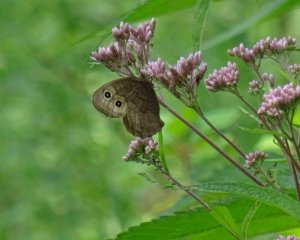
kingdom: Animalia
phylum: Arthropoda
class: Insecta
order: Lepidoptera
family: Nymphalidae
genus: Cercyonis
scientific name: Cercyonis pegala
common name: Common Wood-Nymph
